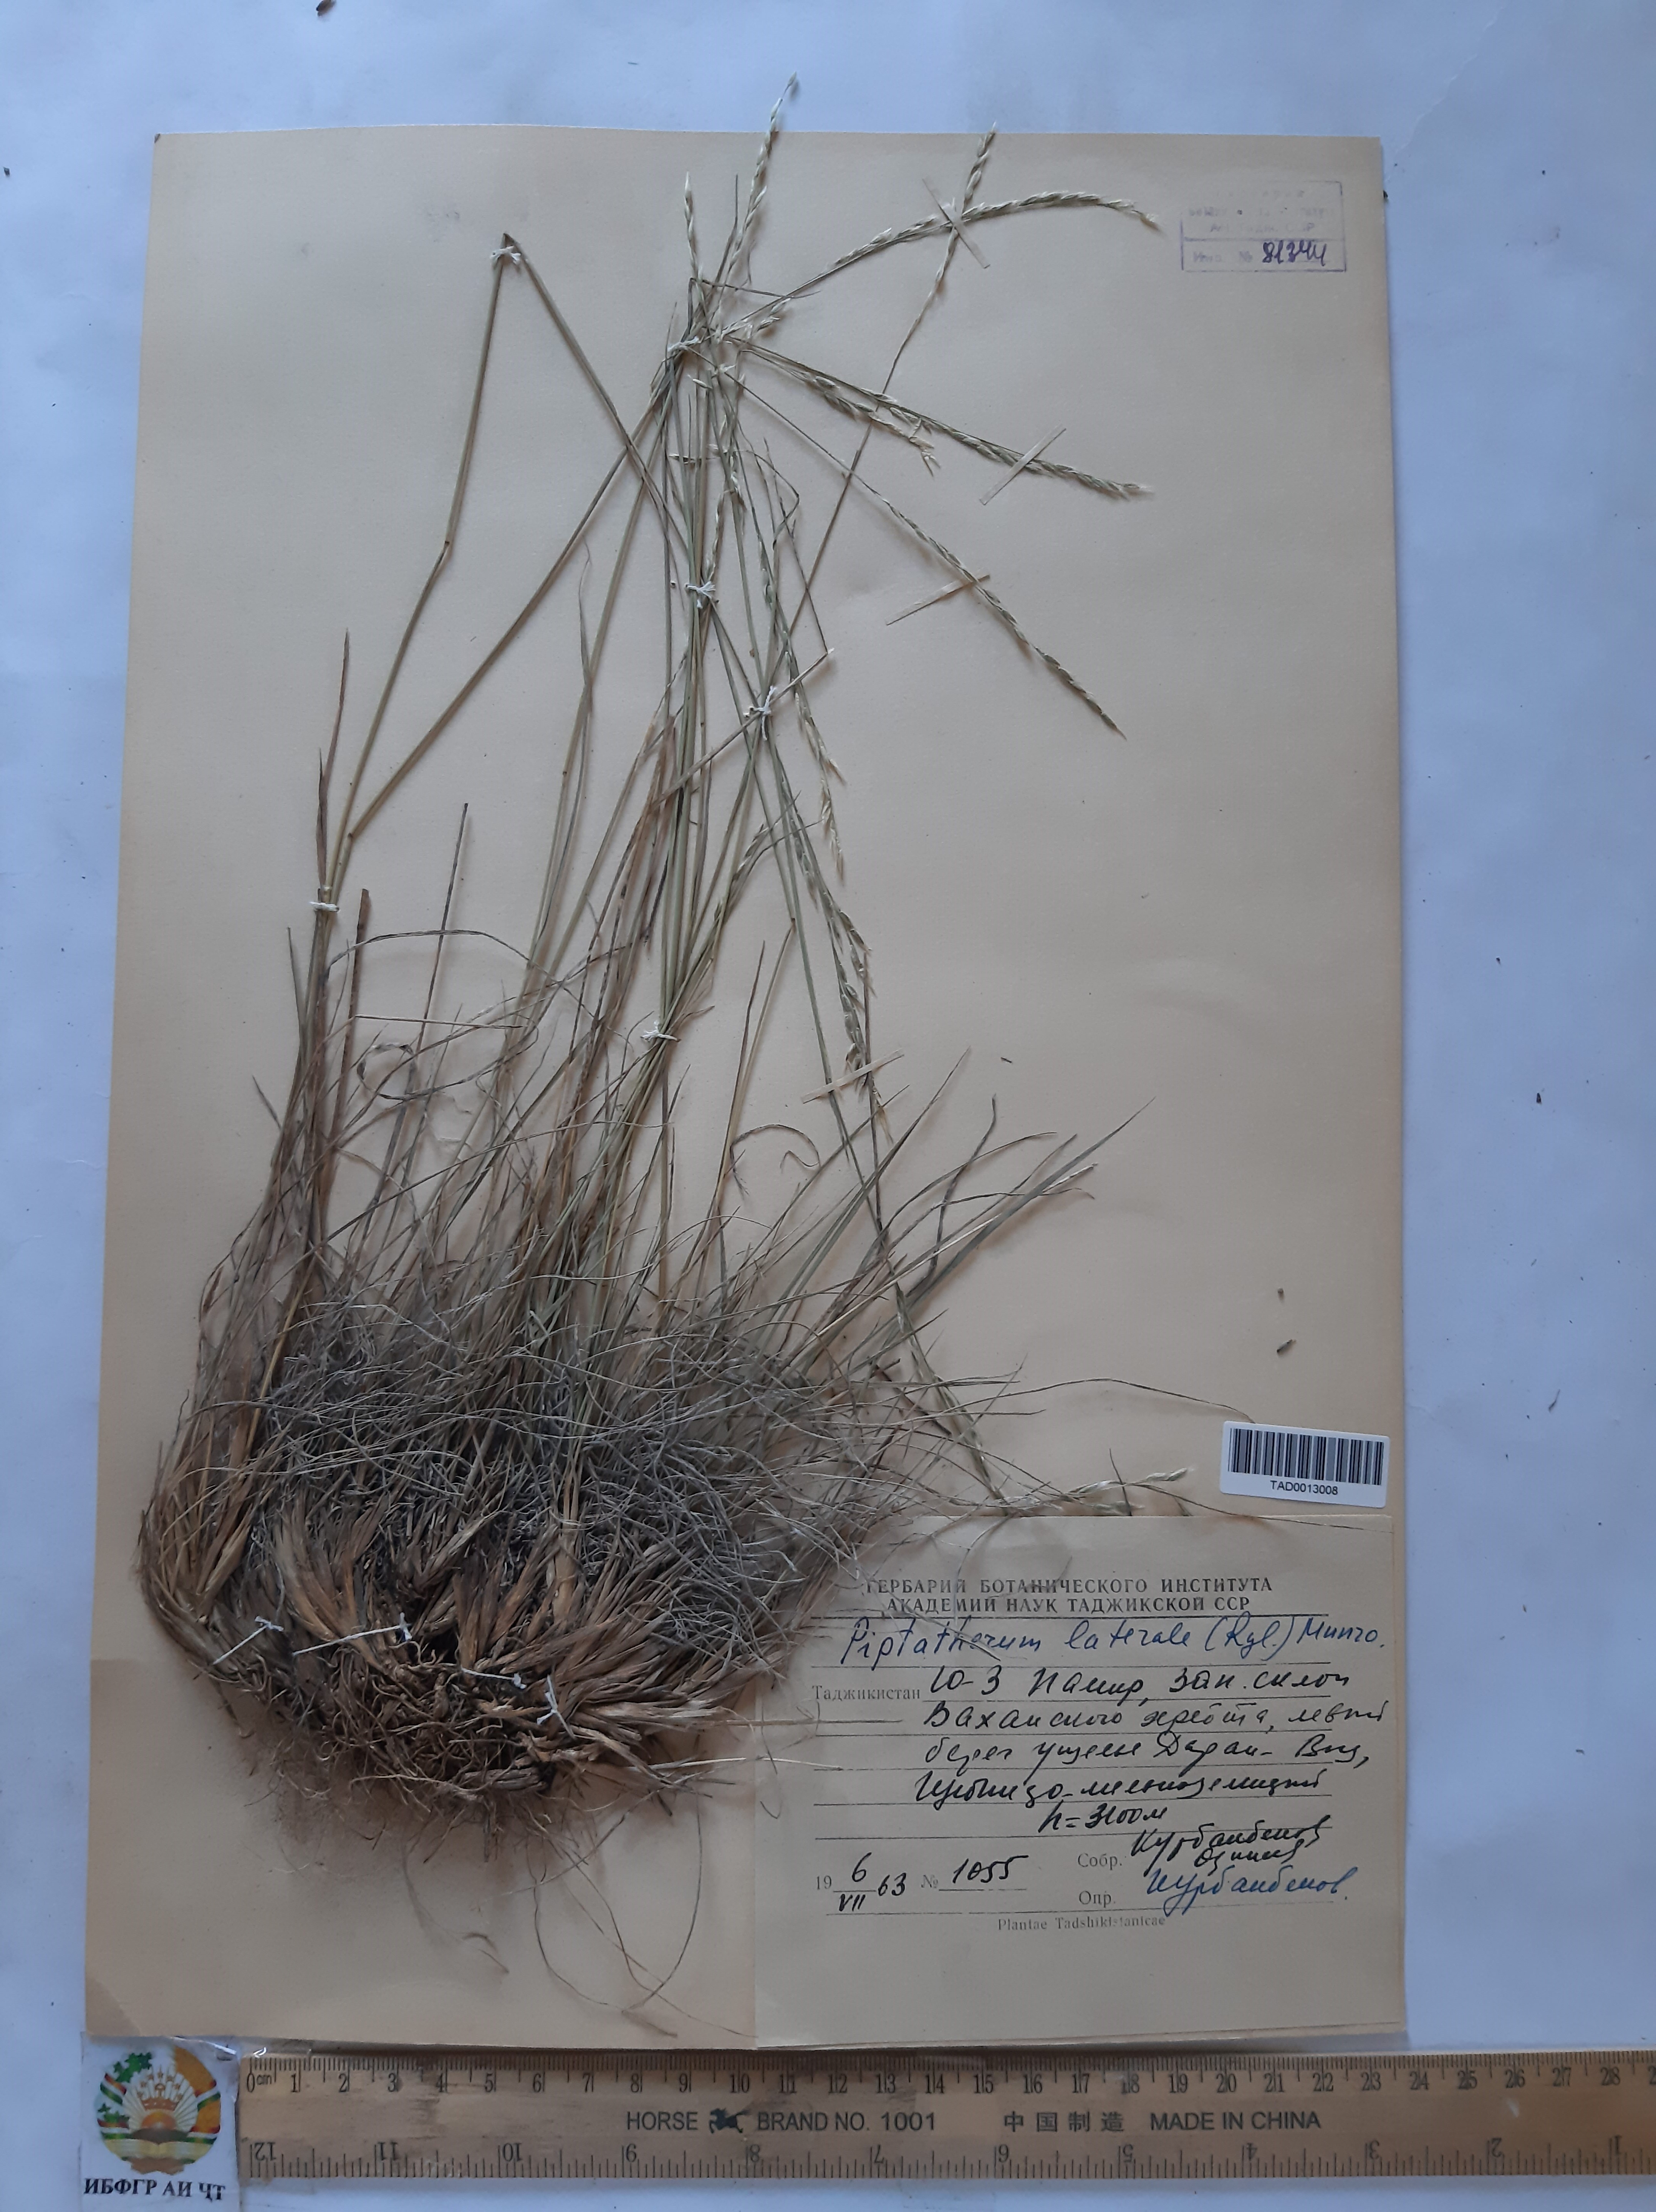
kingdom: Plantae
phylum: Tracheophyta
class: Liliopsida
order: Poales
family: Poaceae
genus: Piptatherum
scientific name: Piptatherum laterale
